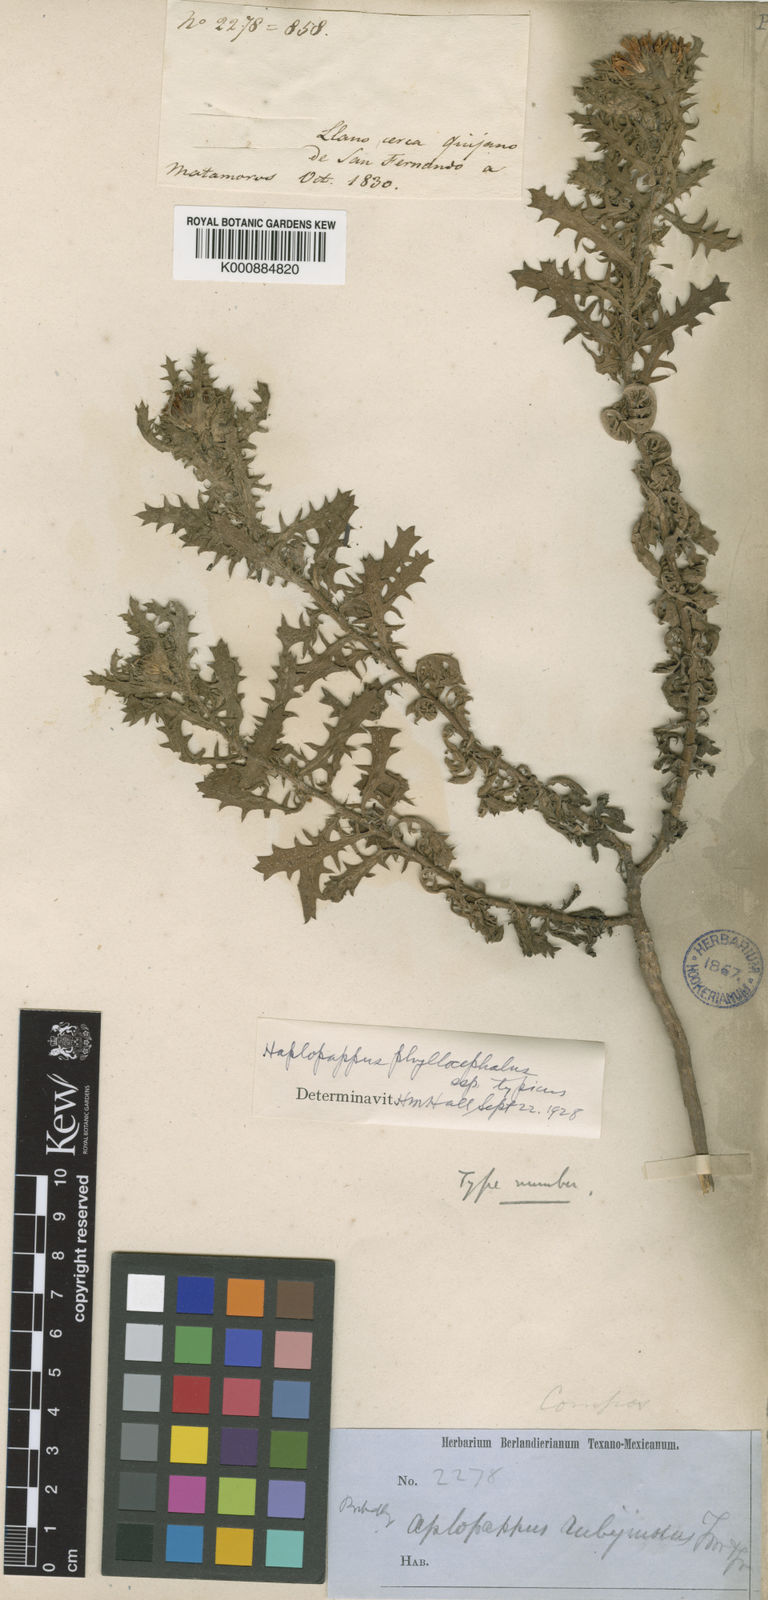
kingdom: Plantae
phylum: Tracheophyta
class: Magnoliopsida
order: Asterales
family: Asteraceae
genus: Rayjacksonia
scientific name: Rayjacksonia phyllocephala
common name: Gulf coast camphor daisy
